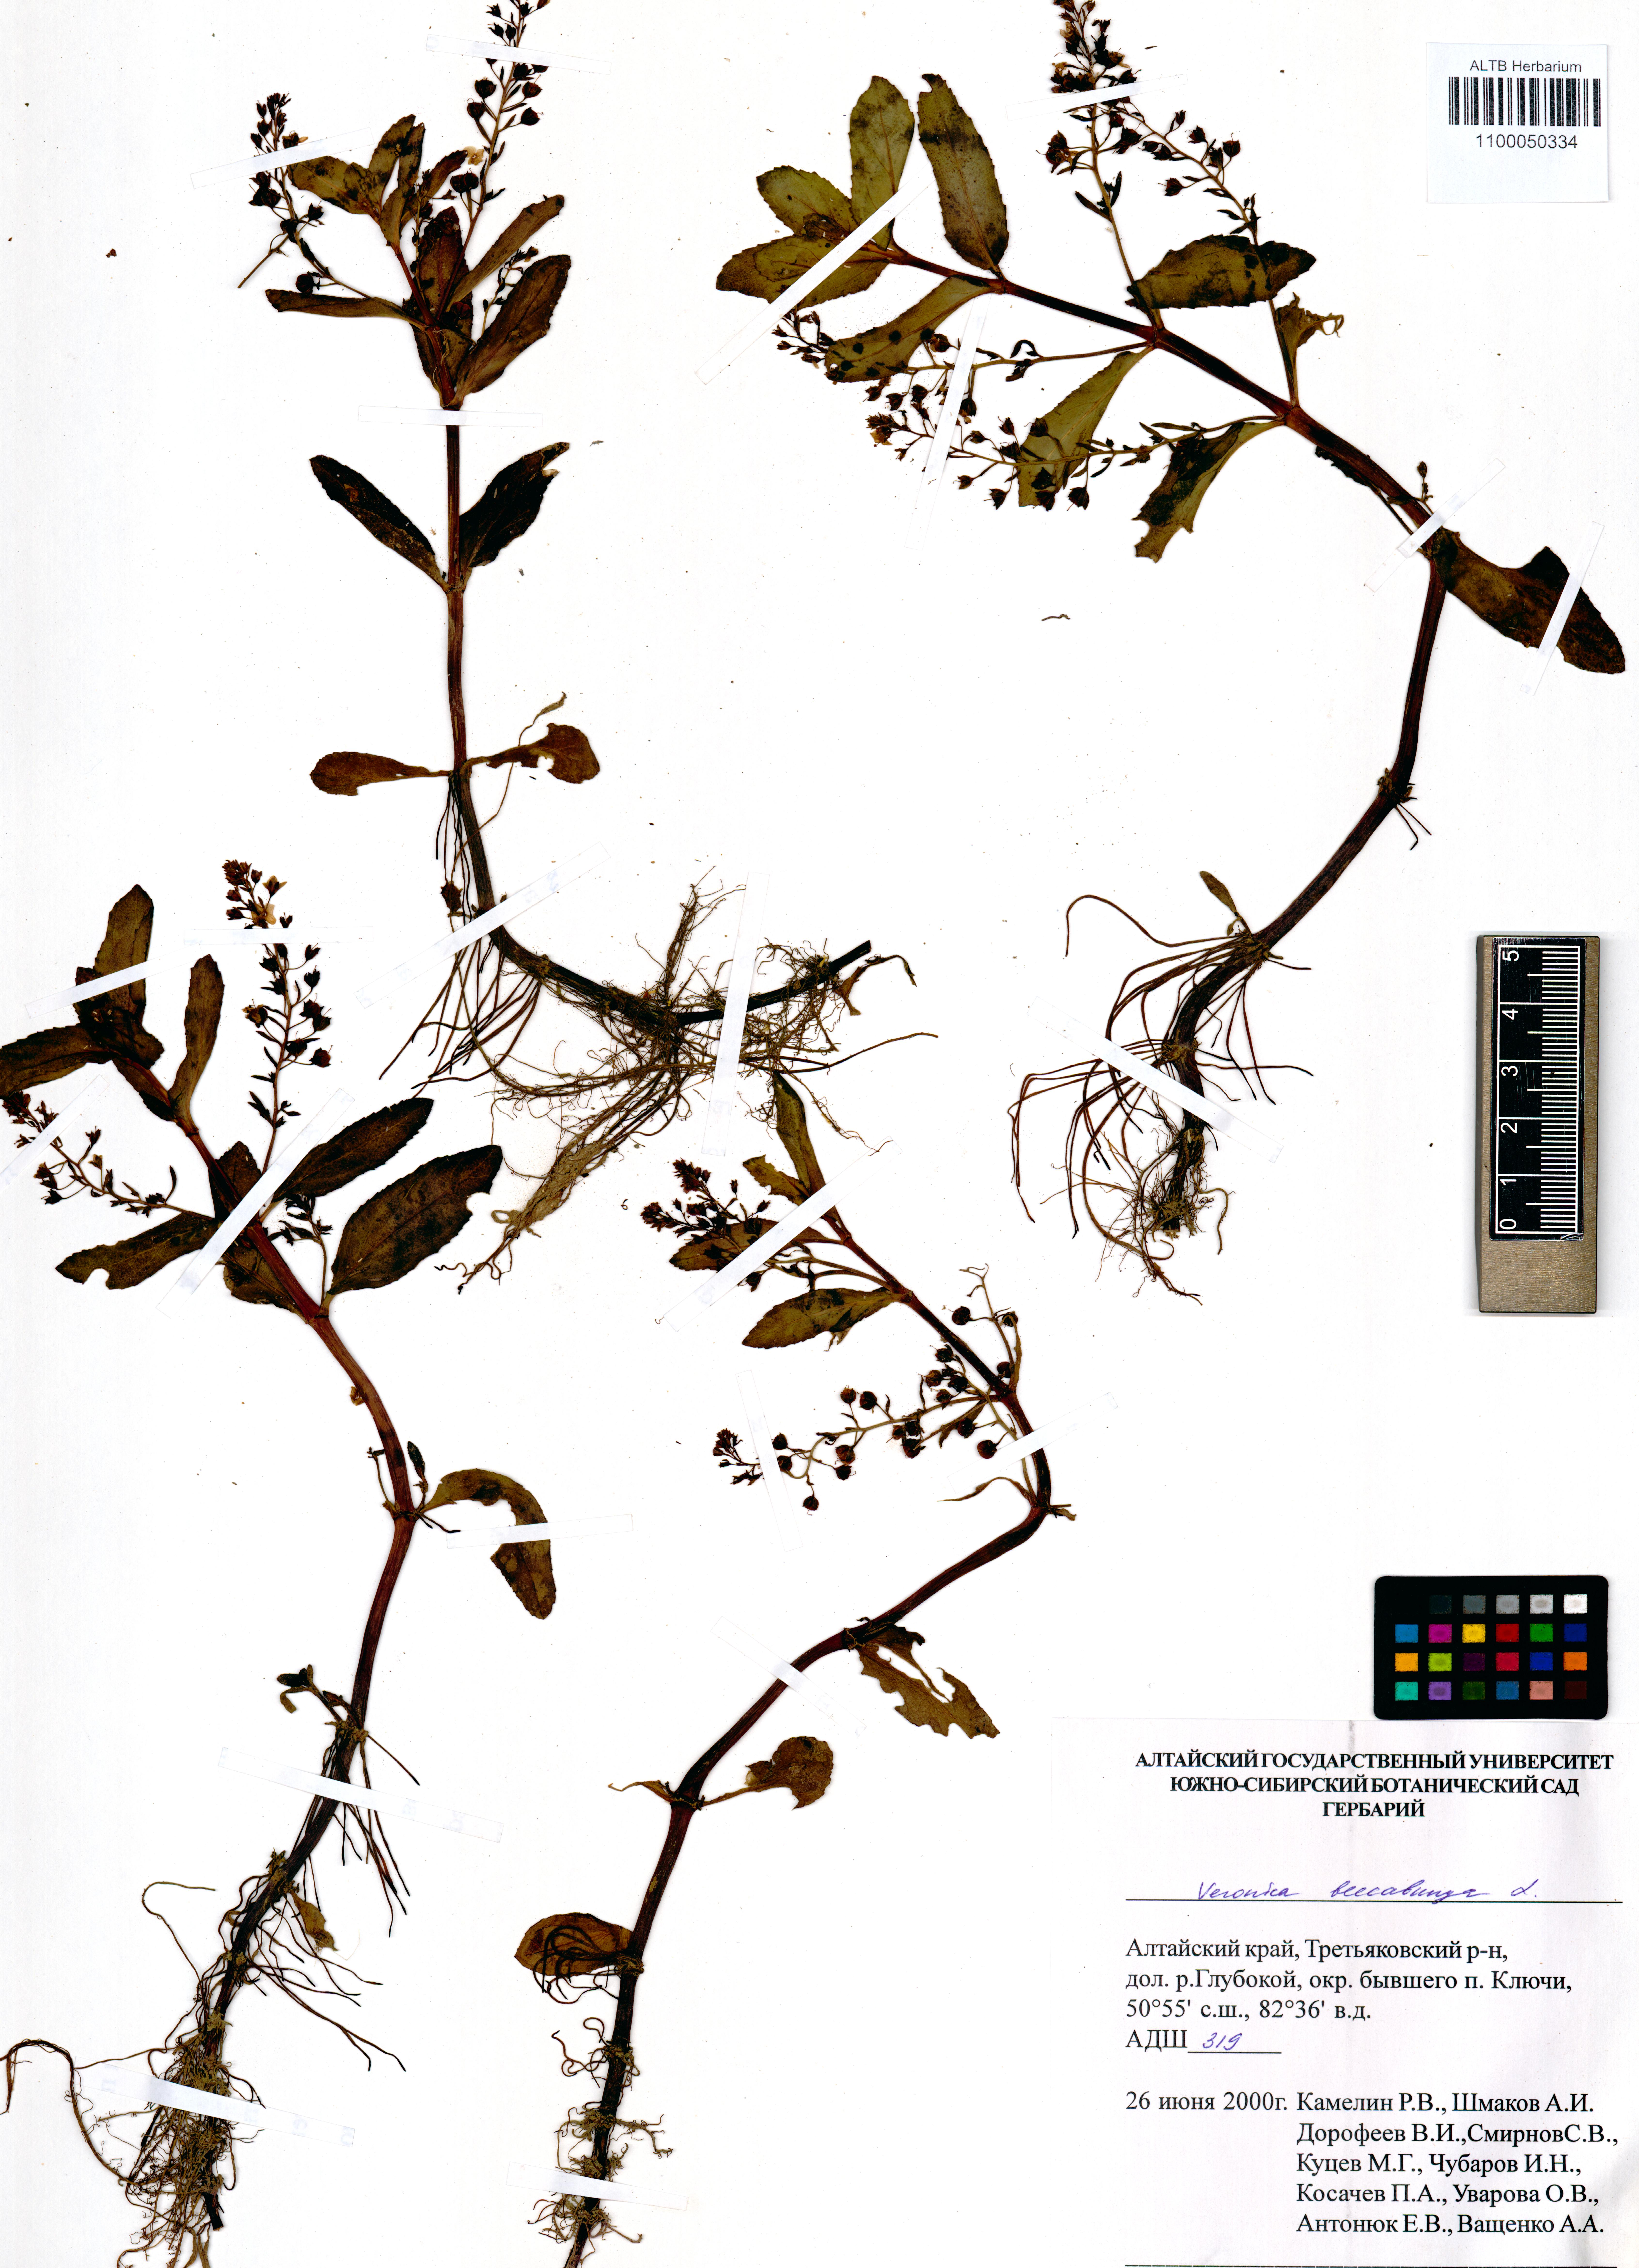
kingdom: Plantae
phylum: Tracheophyta
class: Magnoliopsida
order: Lamiales
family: Plantaginaceae
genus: Veronica
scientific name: Veronica beccabunga
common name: Brooklime
